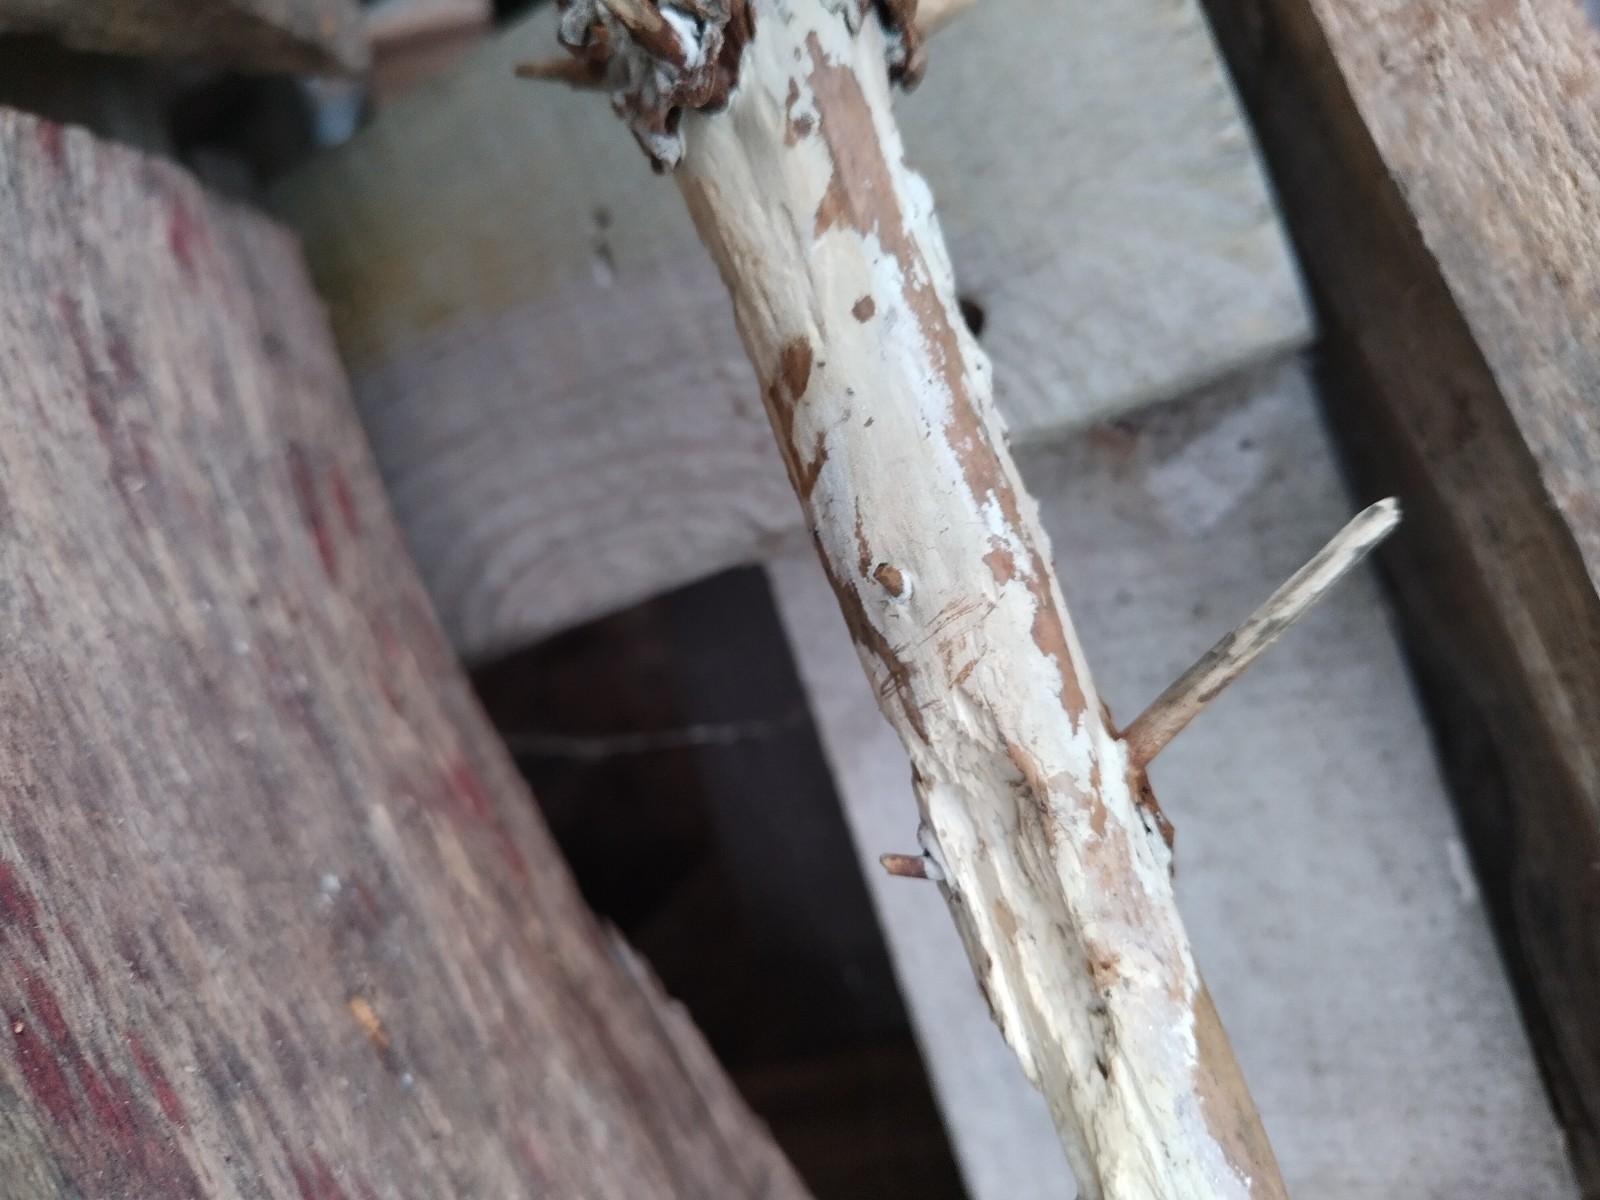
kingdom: Fungi
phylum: Basidiomycota
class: Agaricomycetes
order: Corticiales
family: Corticiaceae
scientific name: Corticiaceae
